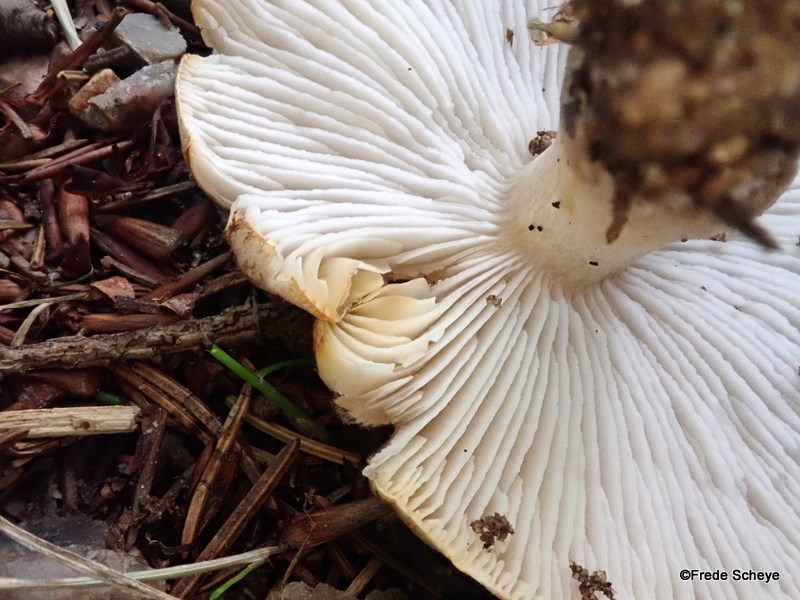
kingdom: Fungi
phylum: Basidiomycota
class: Agaricomycetes
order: Agaricales
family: Tricholomataceae
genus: Tricholoma
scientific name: Tricholoma scalpturatum
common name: gulplettet ridderhat
